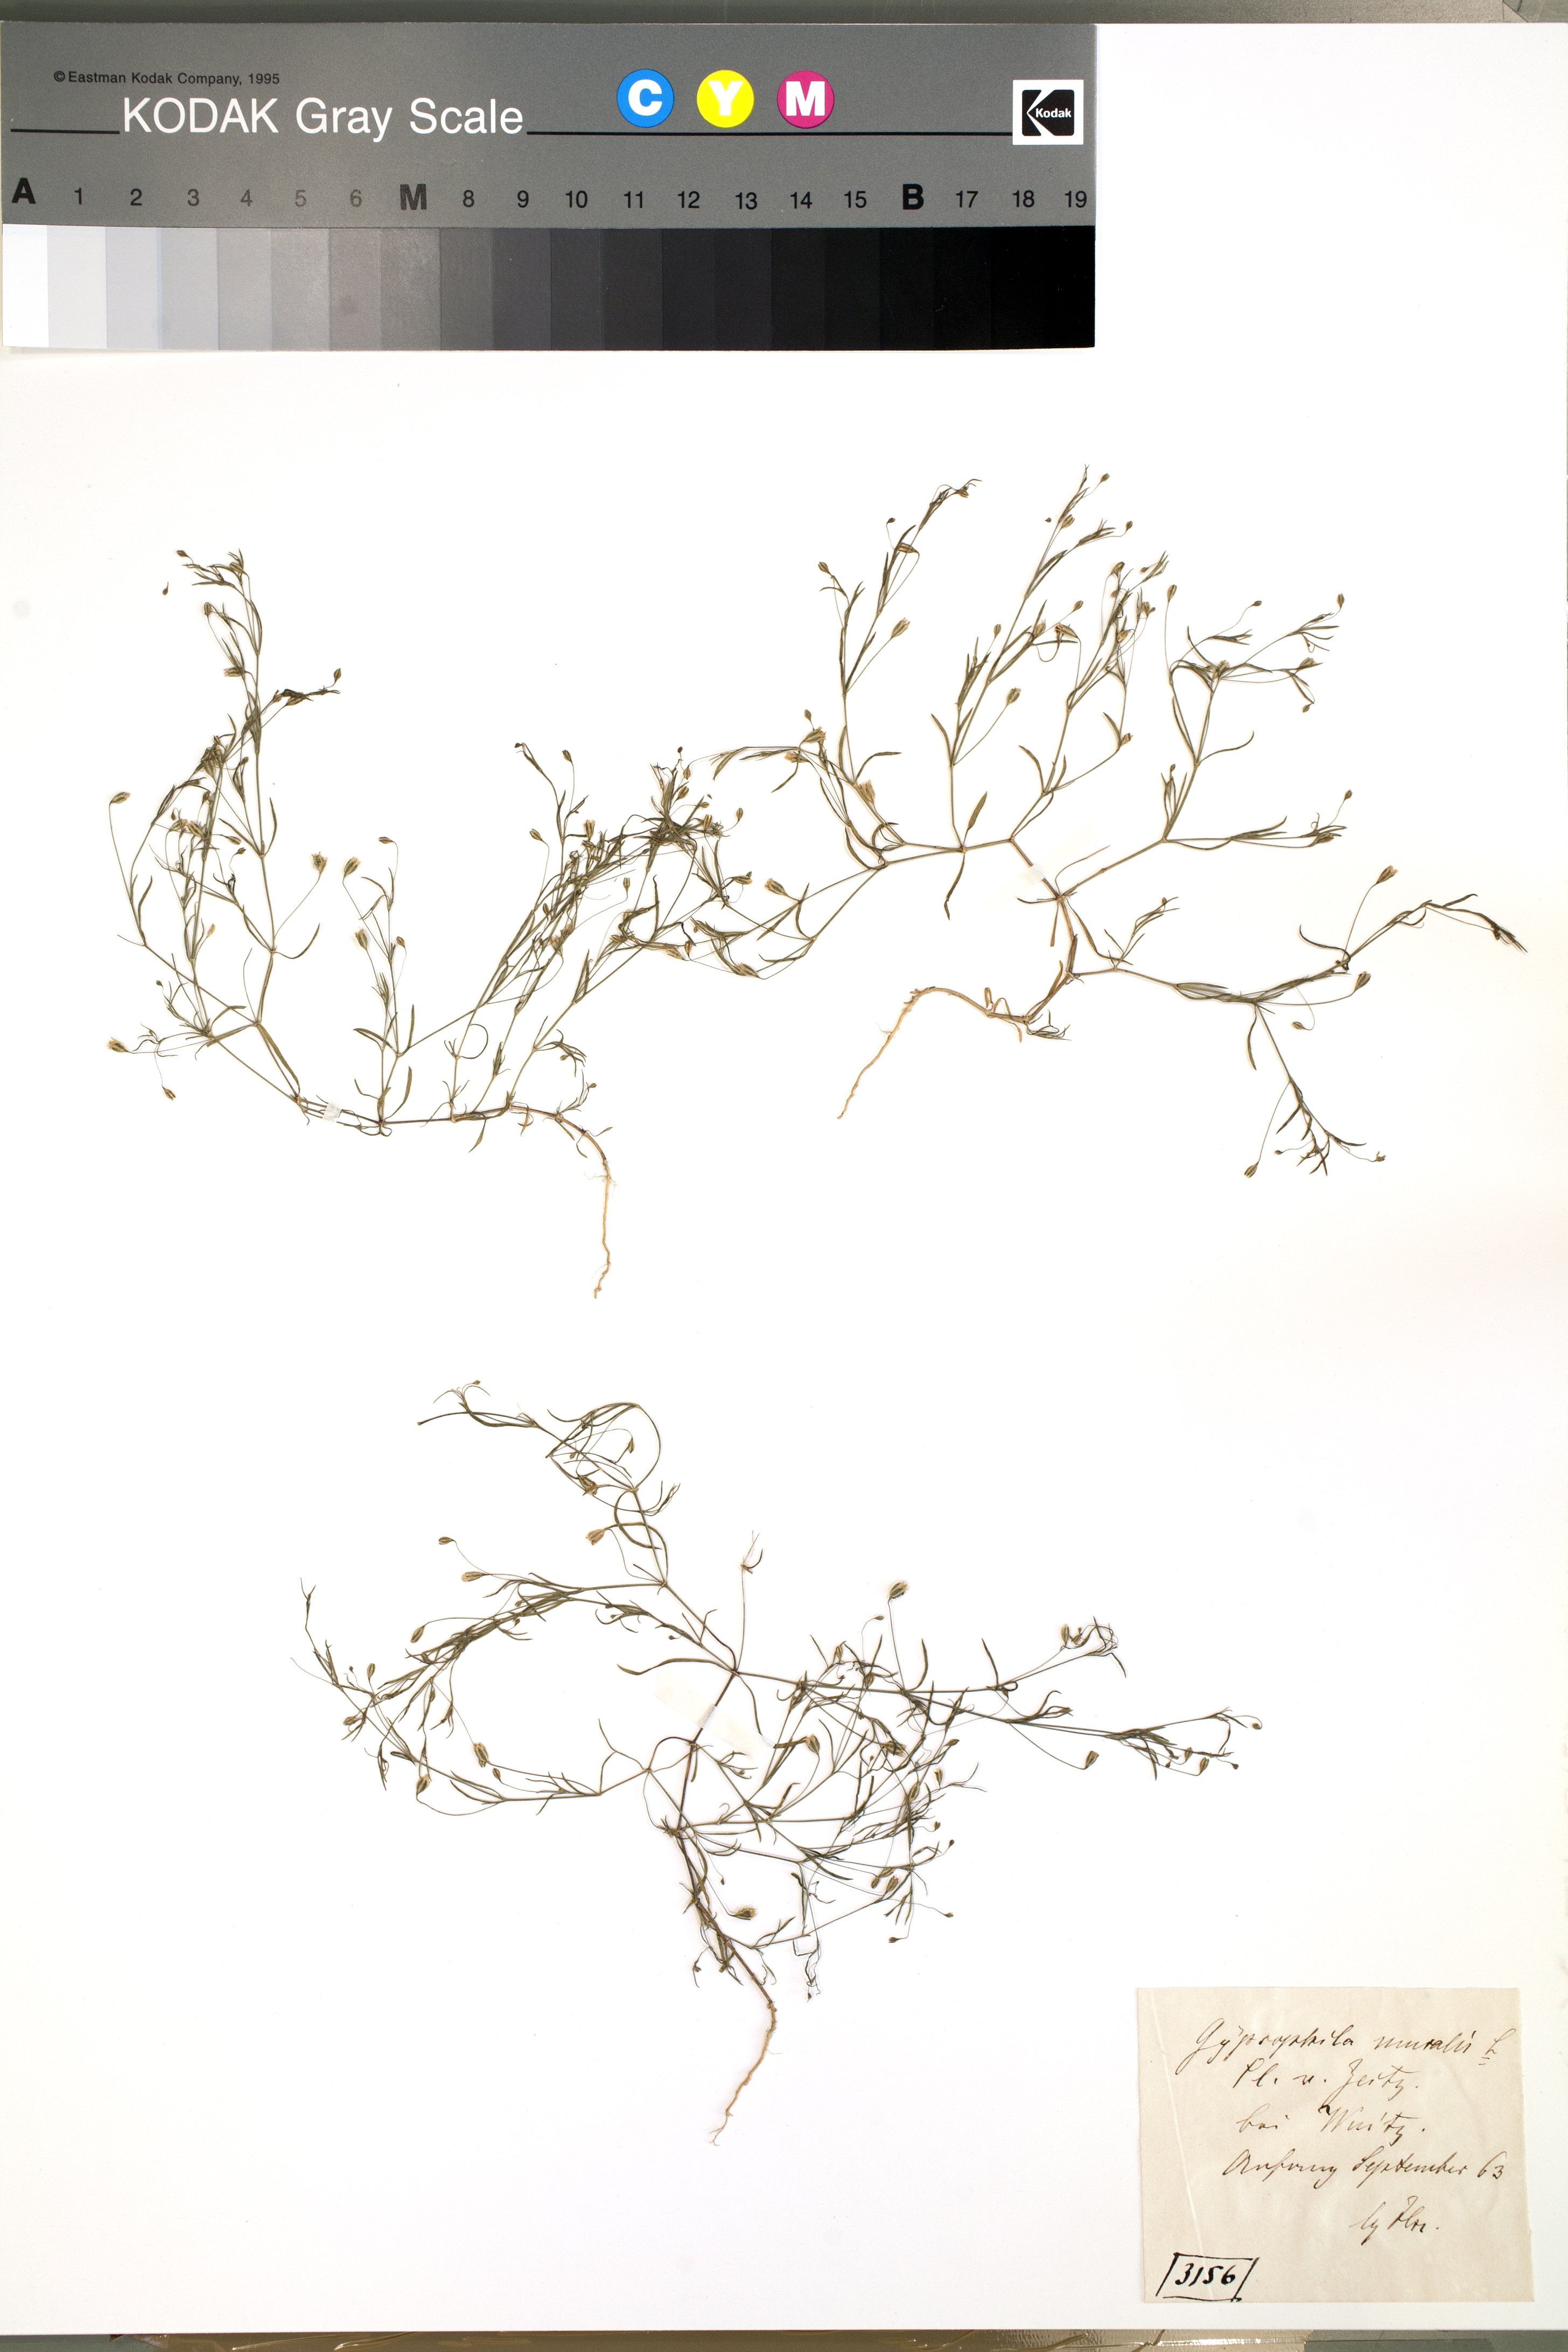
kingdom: Plantae
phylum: Tracheophyta
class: Magnoliopsida
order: Caryophyllales
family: Caryophyllaceae
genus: Psammophiliella
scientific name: Psammophiliella muralis
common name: Cushion baby's-breath
